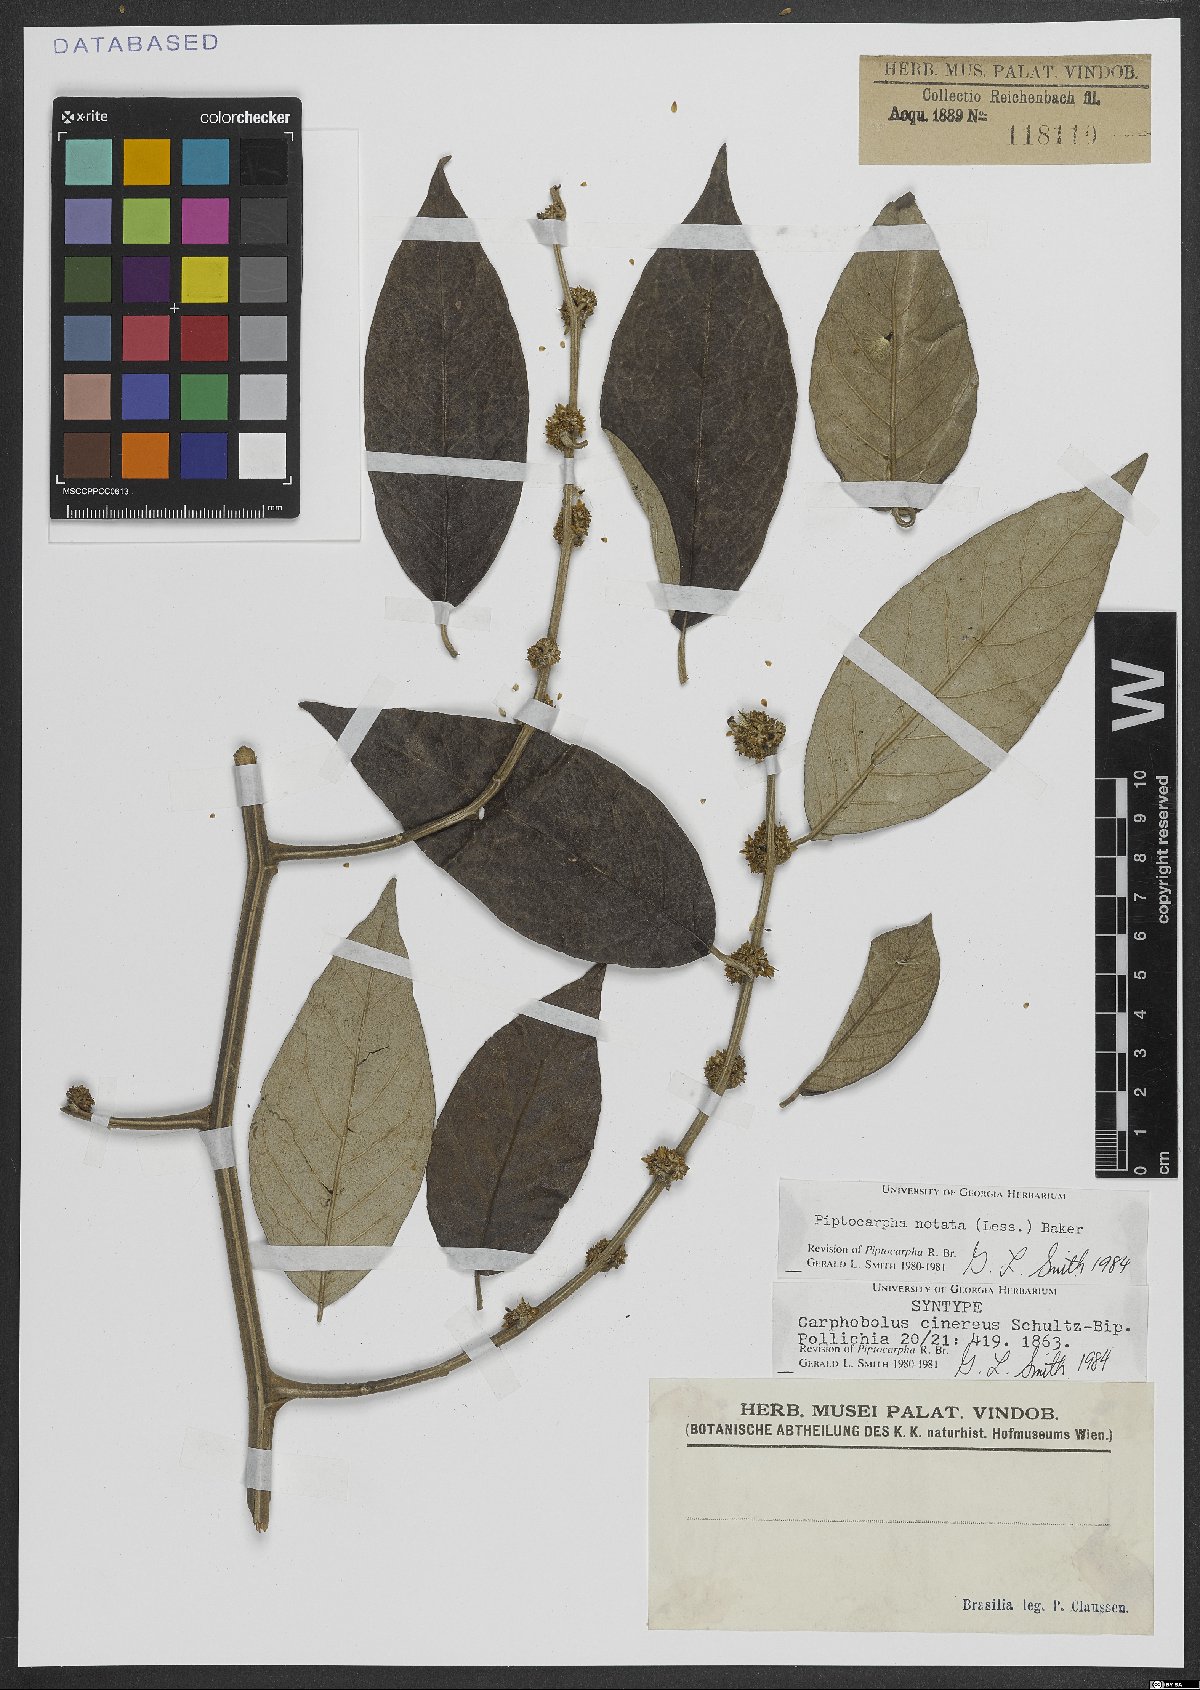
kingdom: Plantae
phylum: Tracheophyta
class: Magnoliopsida
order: Asterales
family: Asteraceae
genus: Piptocarpha
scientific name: Piptocarpha notata
